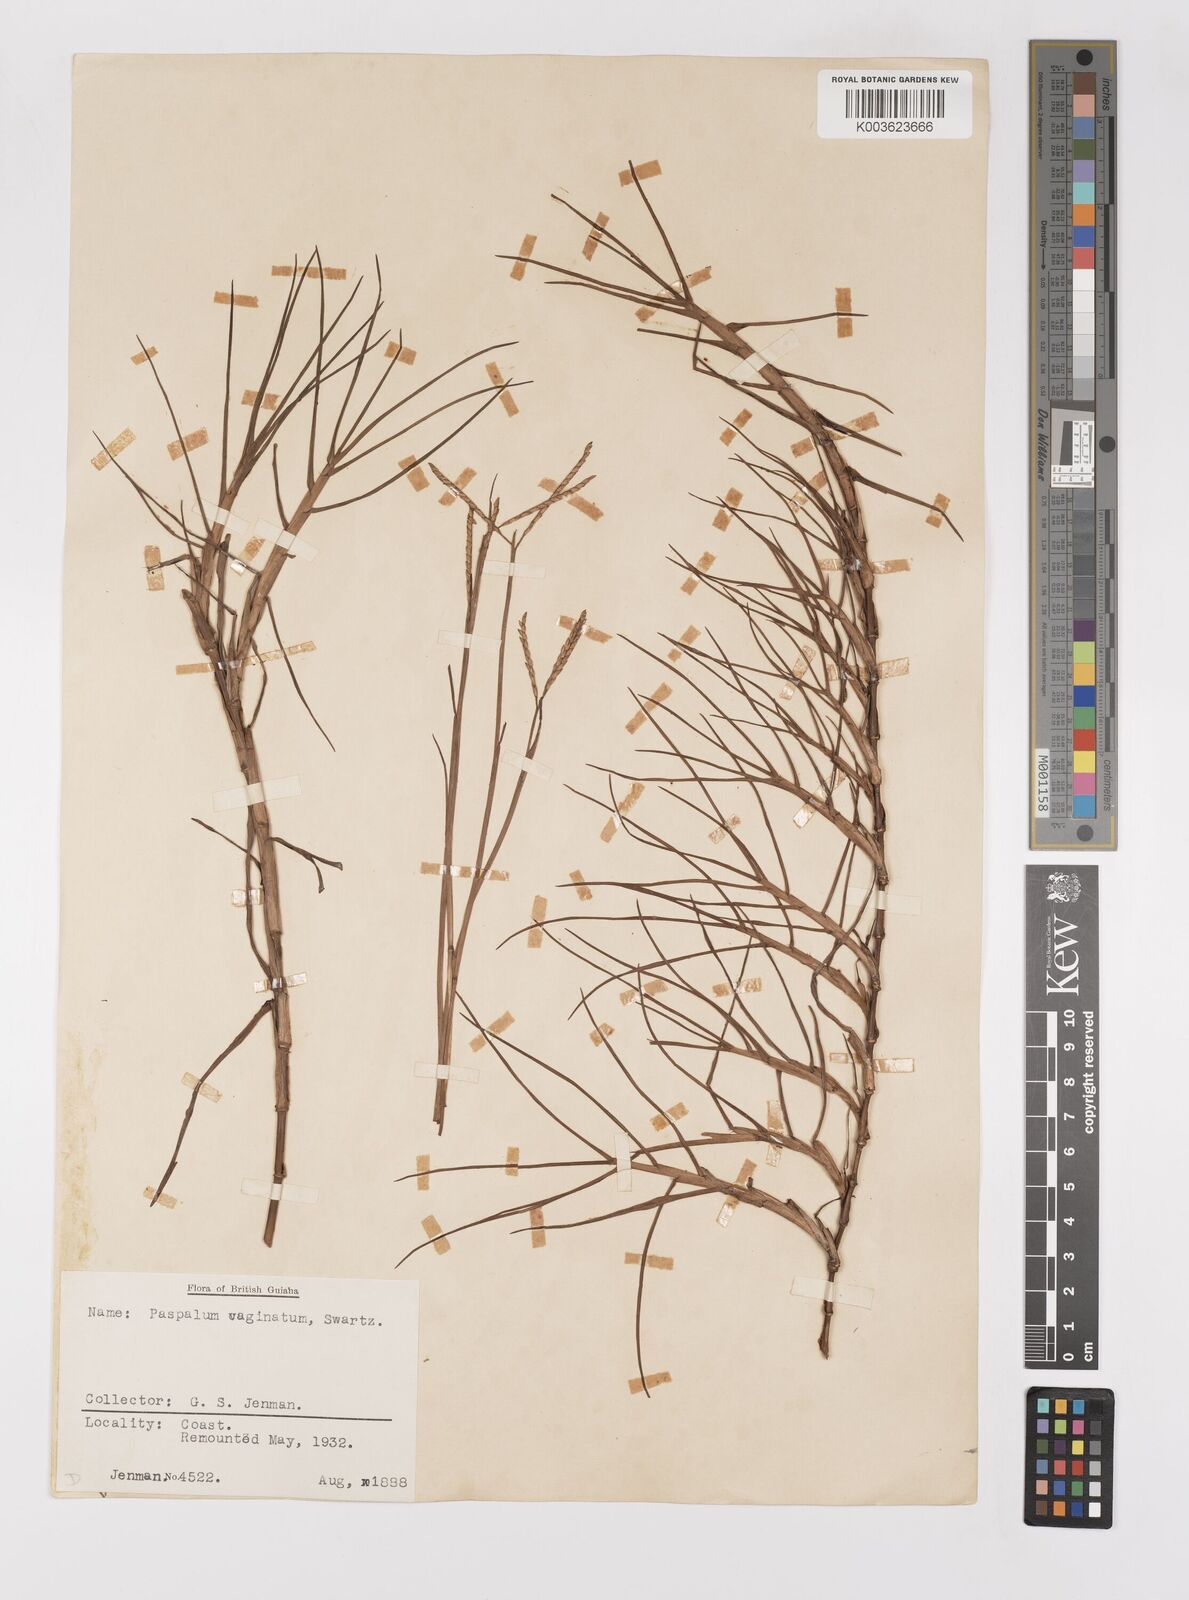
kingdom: Plantae
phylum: Tracheophyta
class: Liliopsida
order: Poales
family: Poaceae
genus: Paspalum
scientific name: Paspalum vaginatum
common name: Seashore paspalum
